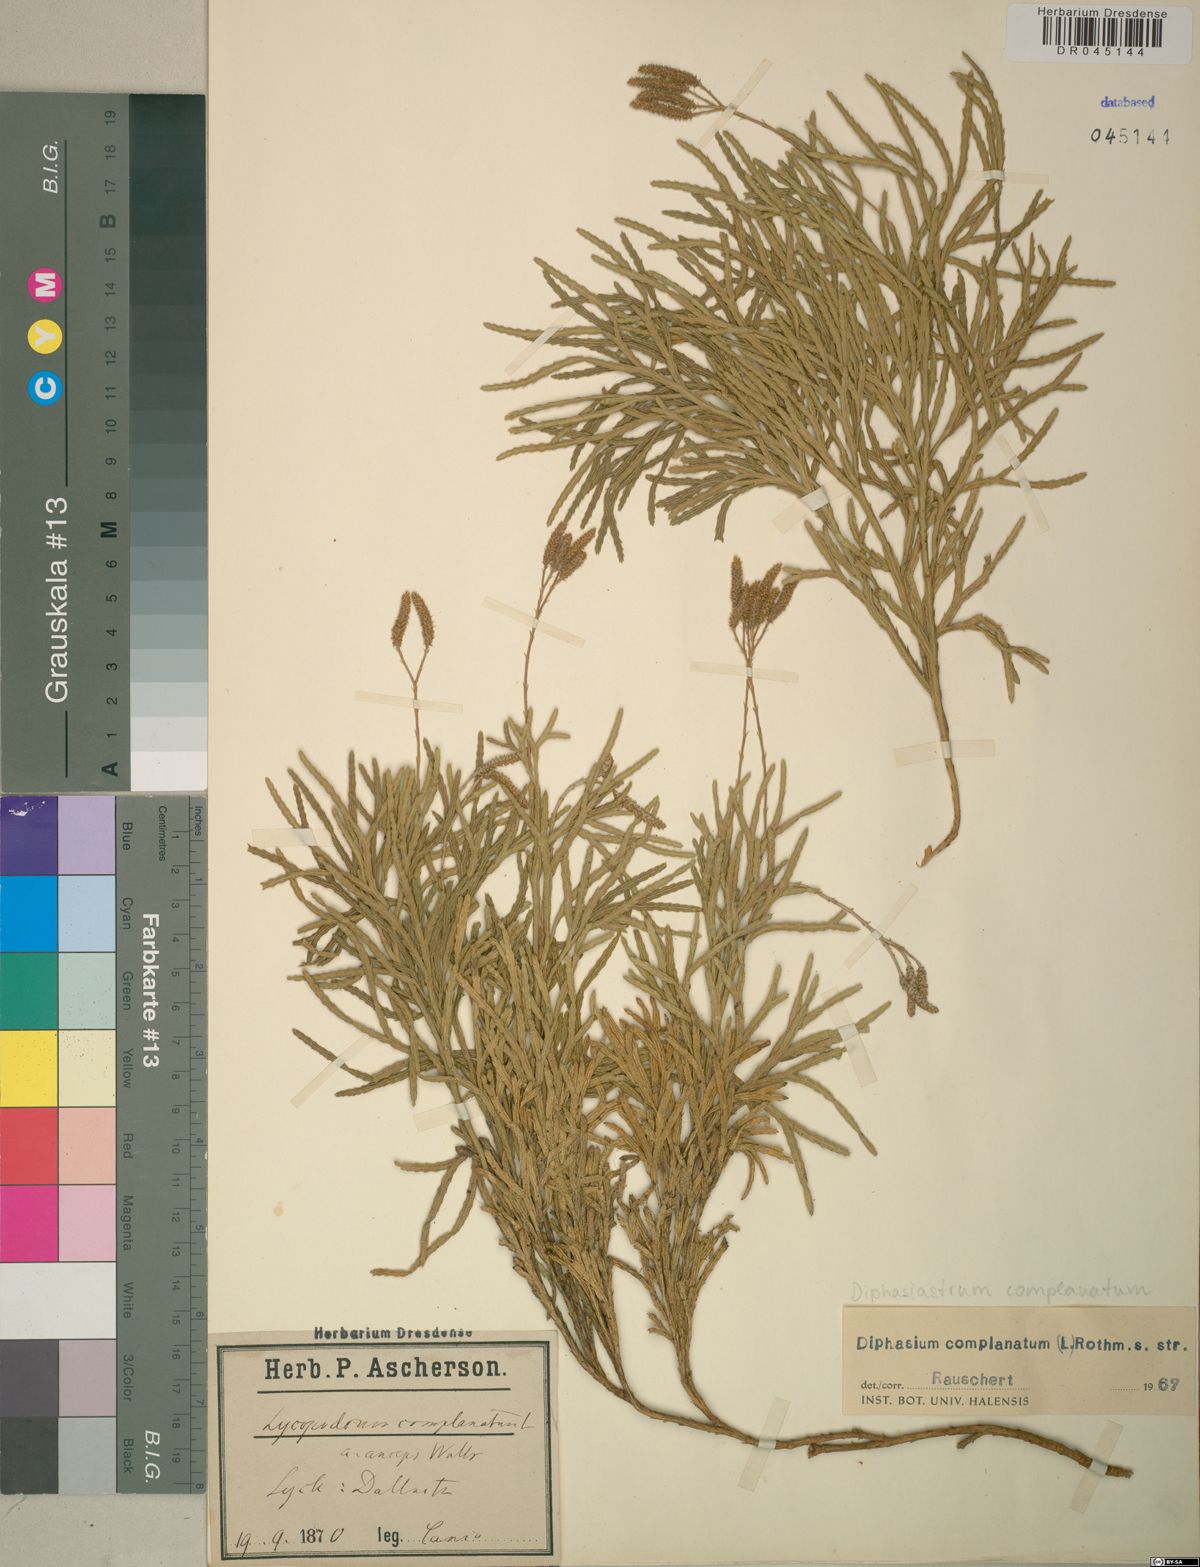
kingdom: Plantae
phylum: Tracheophyta
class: Lycopodiopsida
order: Lycopodiales
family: Lycopodiaceae
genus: Diphasiastrum
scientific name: Diphasiastrum complanatum
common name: Northern running-pine
